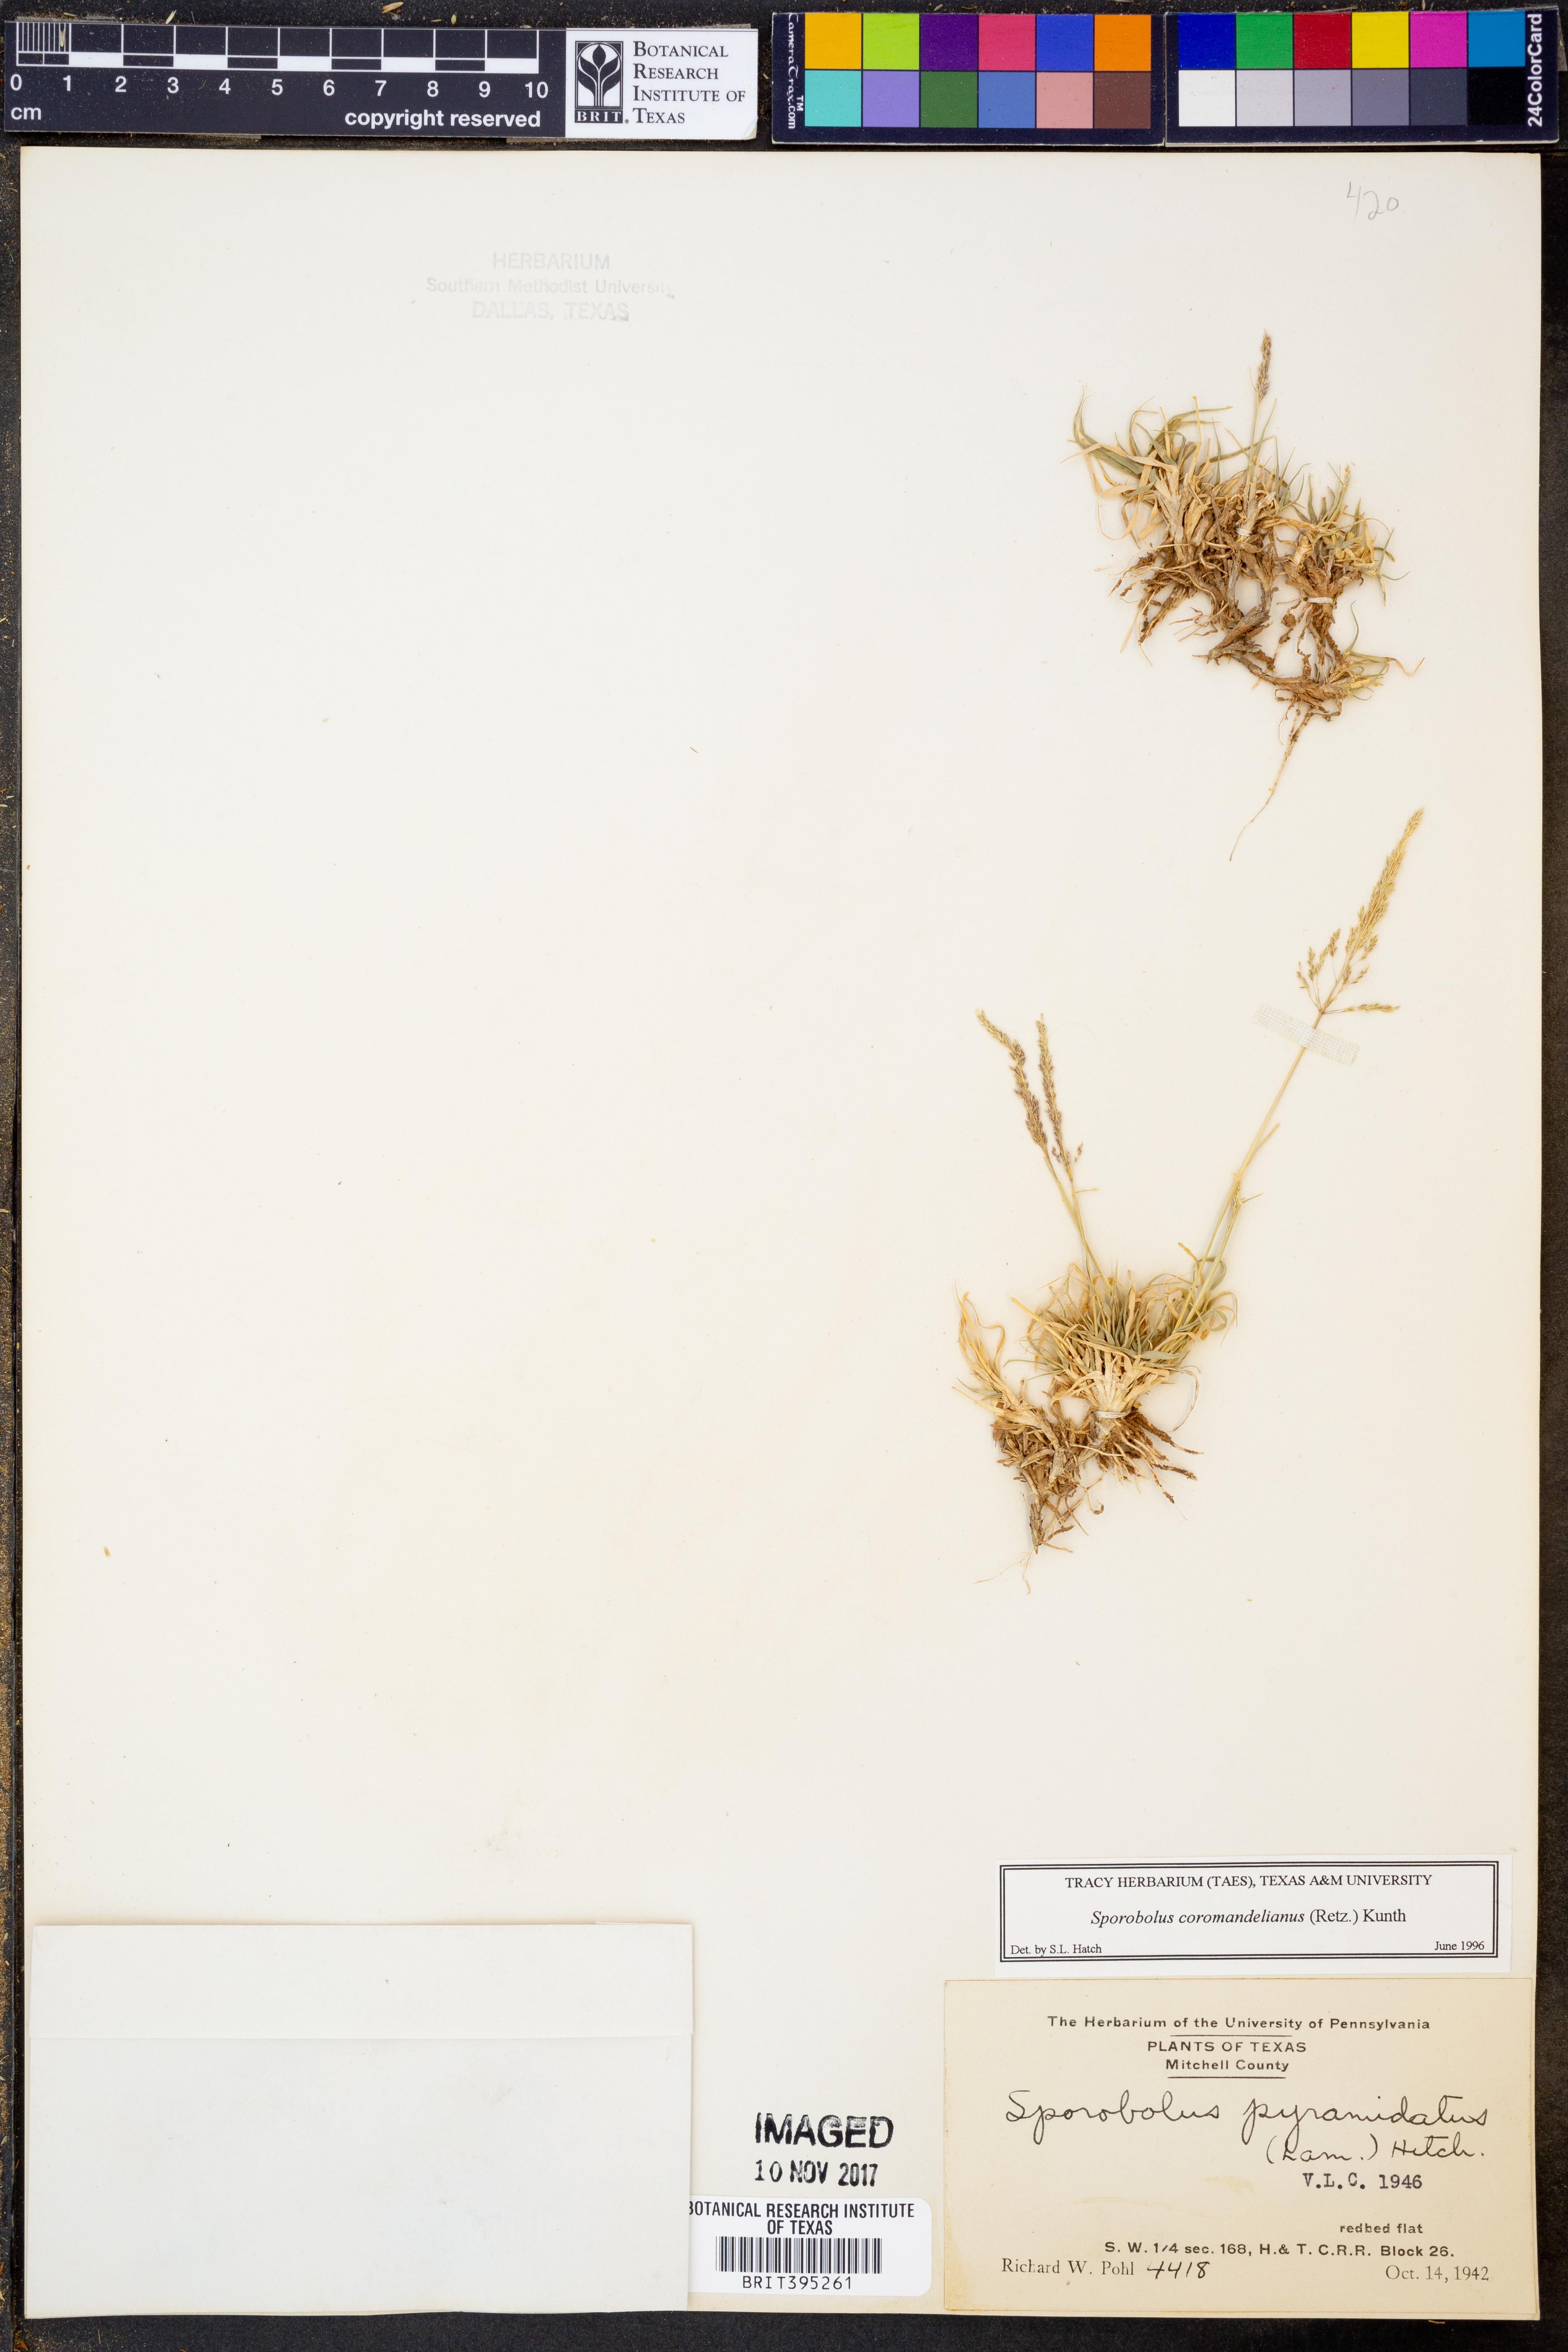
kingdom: Plantae
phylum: Tracheophyta
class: Liliopsida
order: Poales
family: Poaceae
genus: Sporobolus
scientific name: Sporobolus coromandelianus
